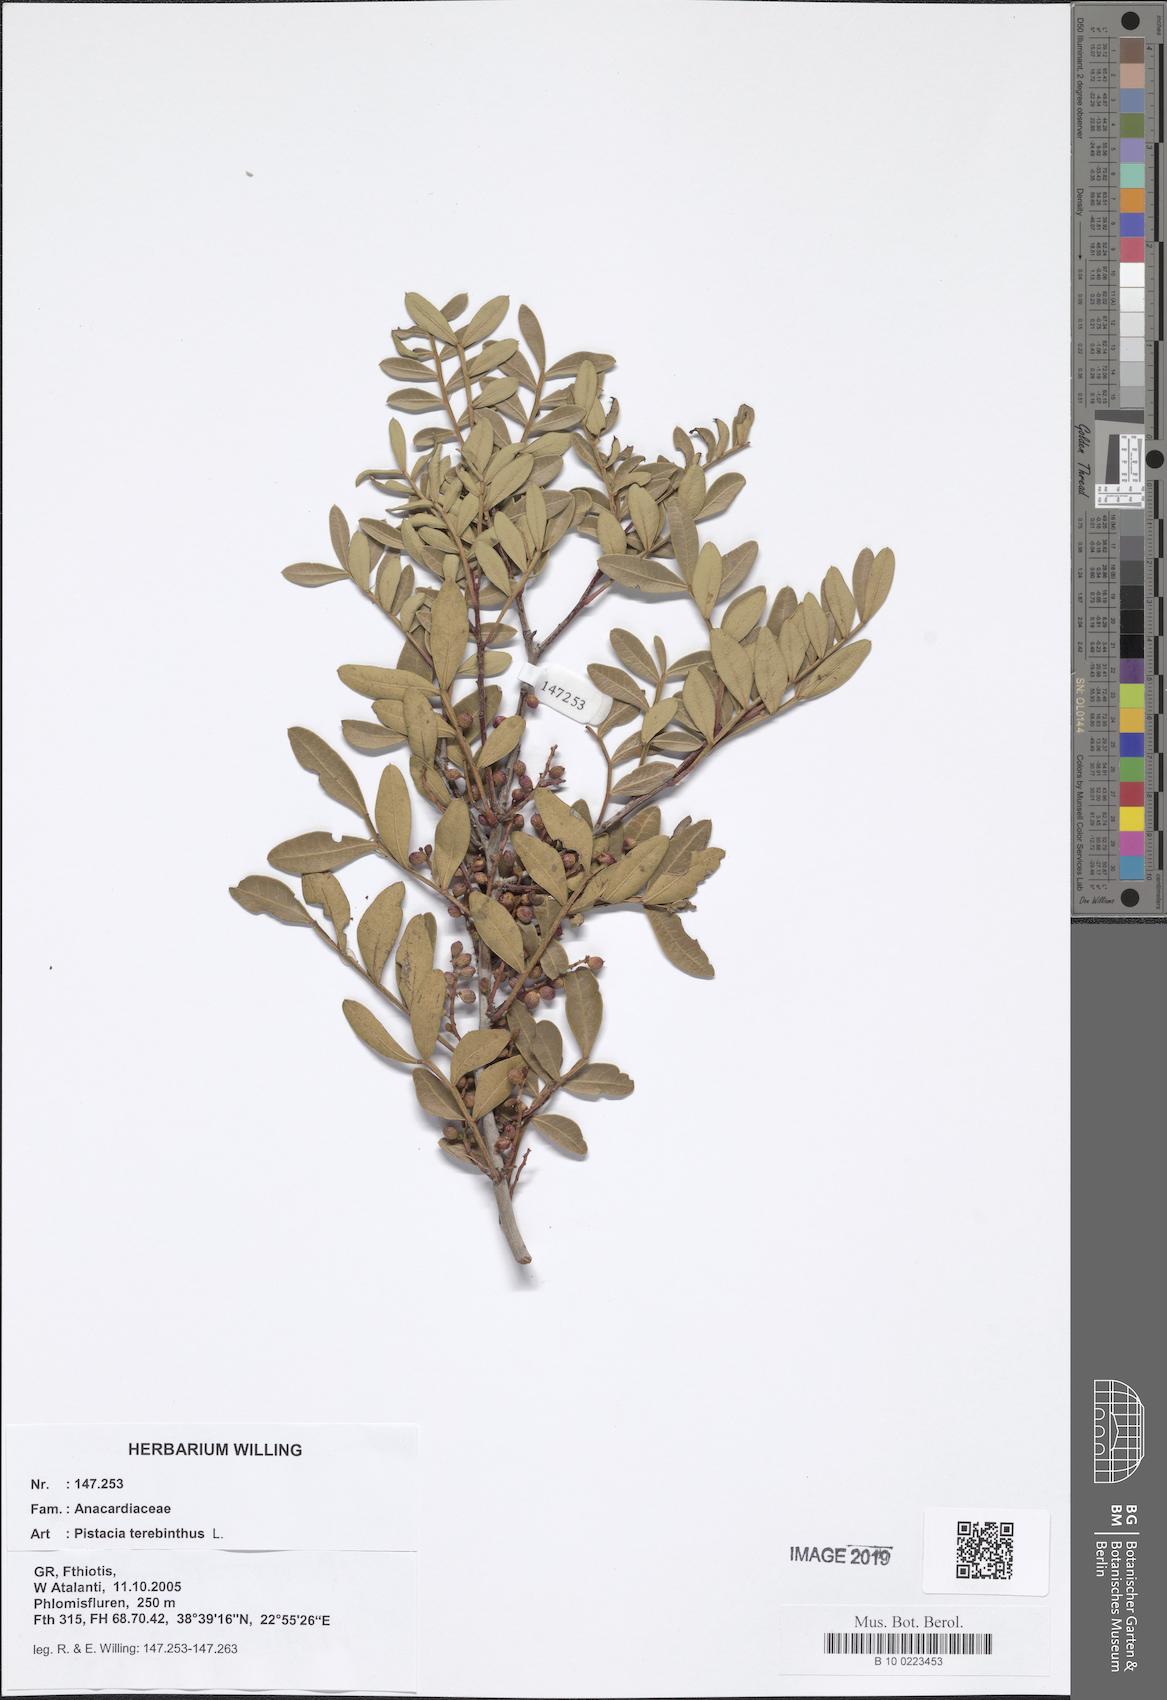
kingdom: Plantae
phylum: Tracheophyta
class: Magnoliopsida
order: Sapindales
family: Anacardiaceae
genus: Pistacia
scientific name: Pistacia terebinthus
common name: Terebinth
